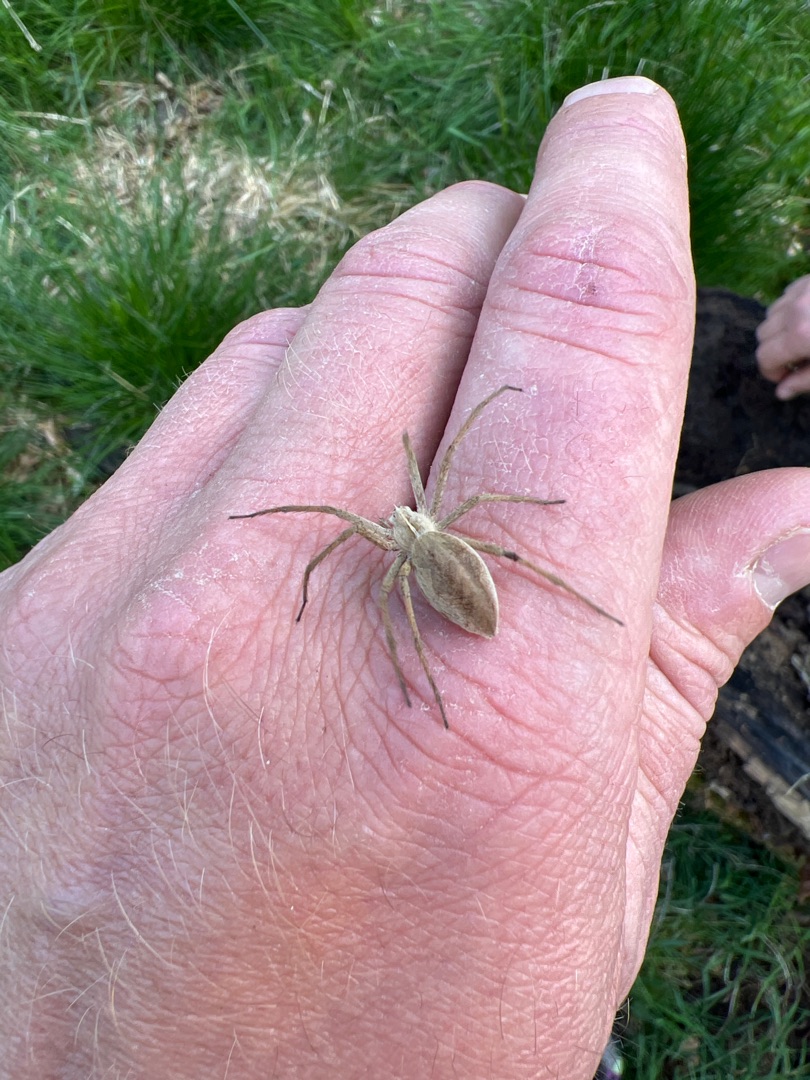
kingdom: Animalia
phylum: Arthropoda
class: Arachnida
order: Araneae
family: Pisauridae
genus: Pisaura
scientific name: Pisaura mirabilis
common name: Almindelig rovedderkop
